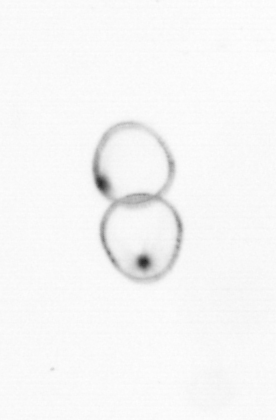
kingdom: Chromista
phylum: Myzozoa
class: Dinophyceae
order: Noctilucales
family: Noctilucaceae
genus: Noctiluca
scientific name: Noctiluca scintillans
